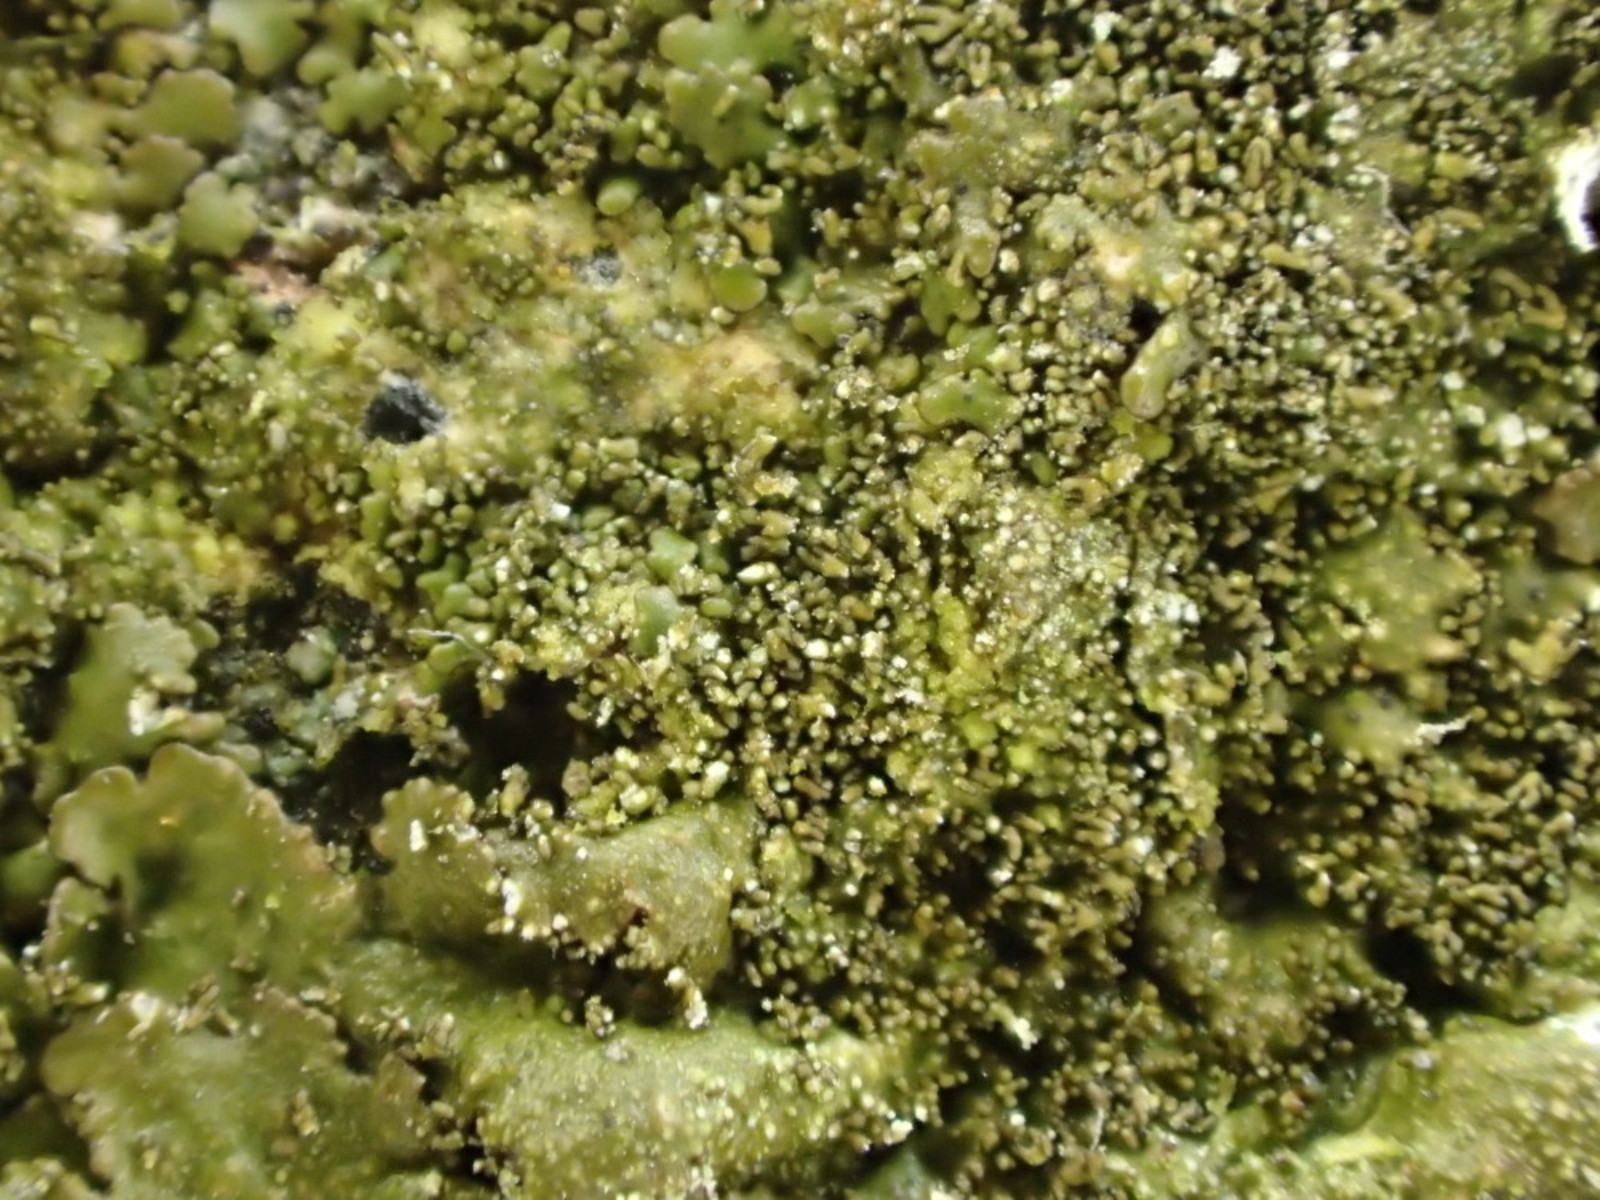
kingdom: Fungi
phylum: Ascomycota
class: Lecanoromycetes
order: Lecanorales
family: Parmeliaceae
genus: Melanohalea
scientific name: Melanohalea exasperatula
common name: kølle-skållav
